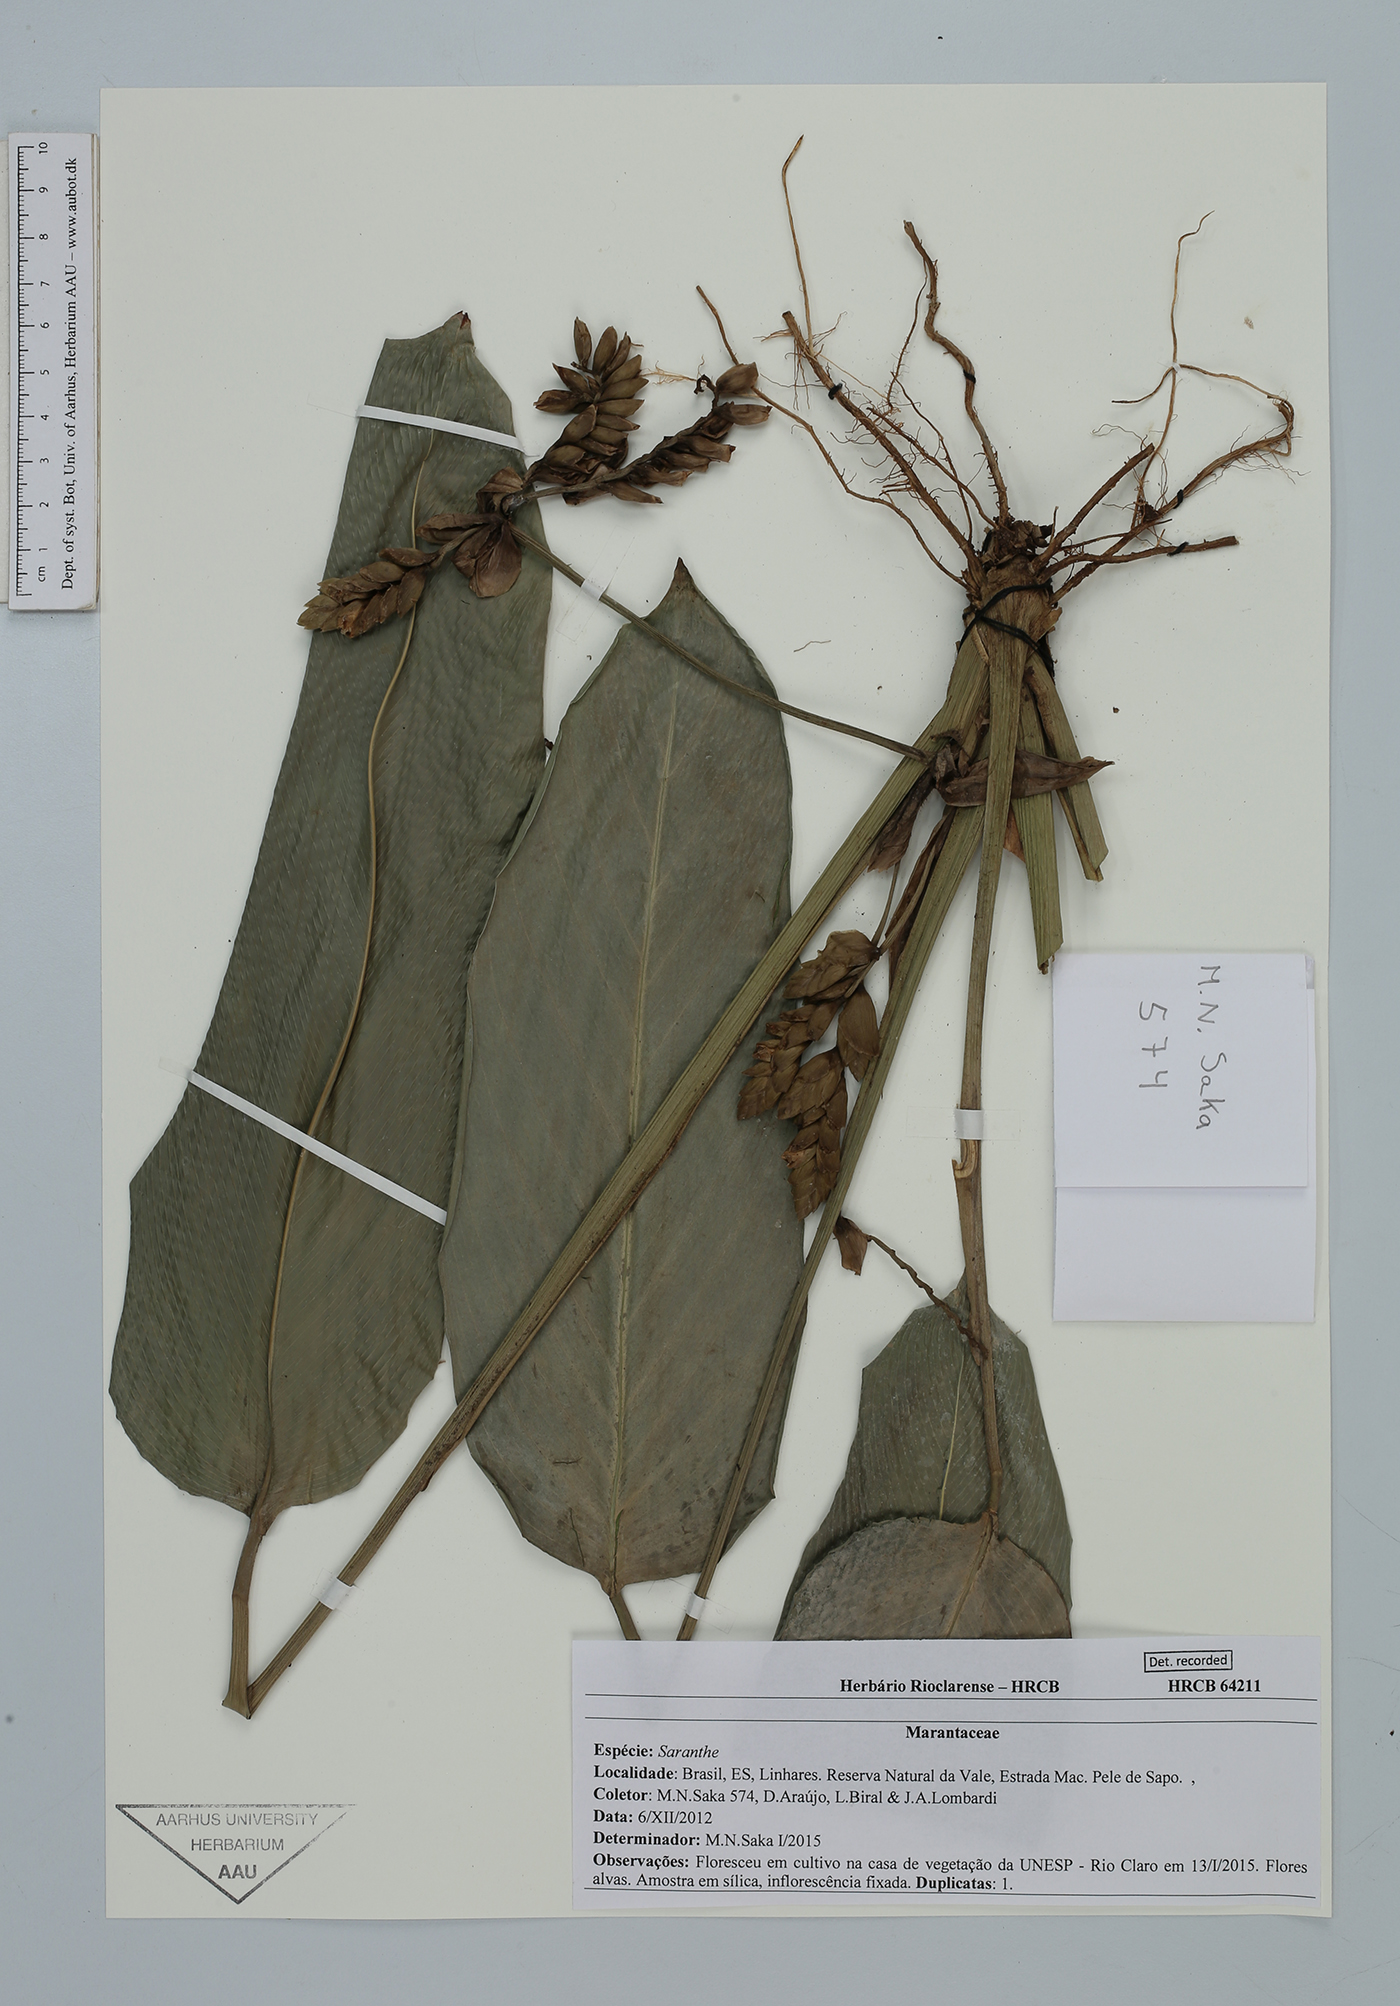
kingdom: Plantae
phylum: Tracheophyta
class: Liliopsida
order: Zingiberales
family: Marantaceae
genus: Saranthe
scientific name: Saranthe
